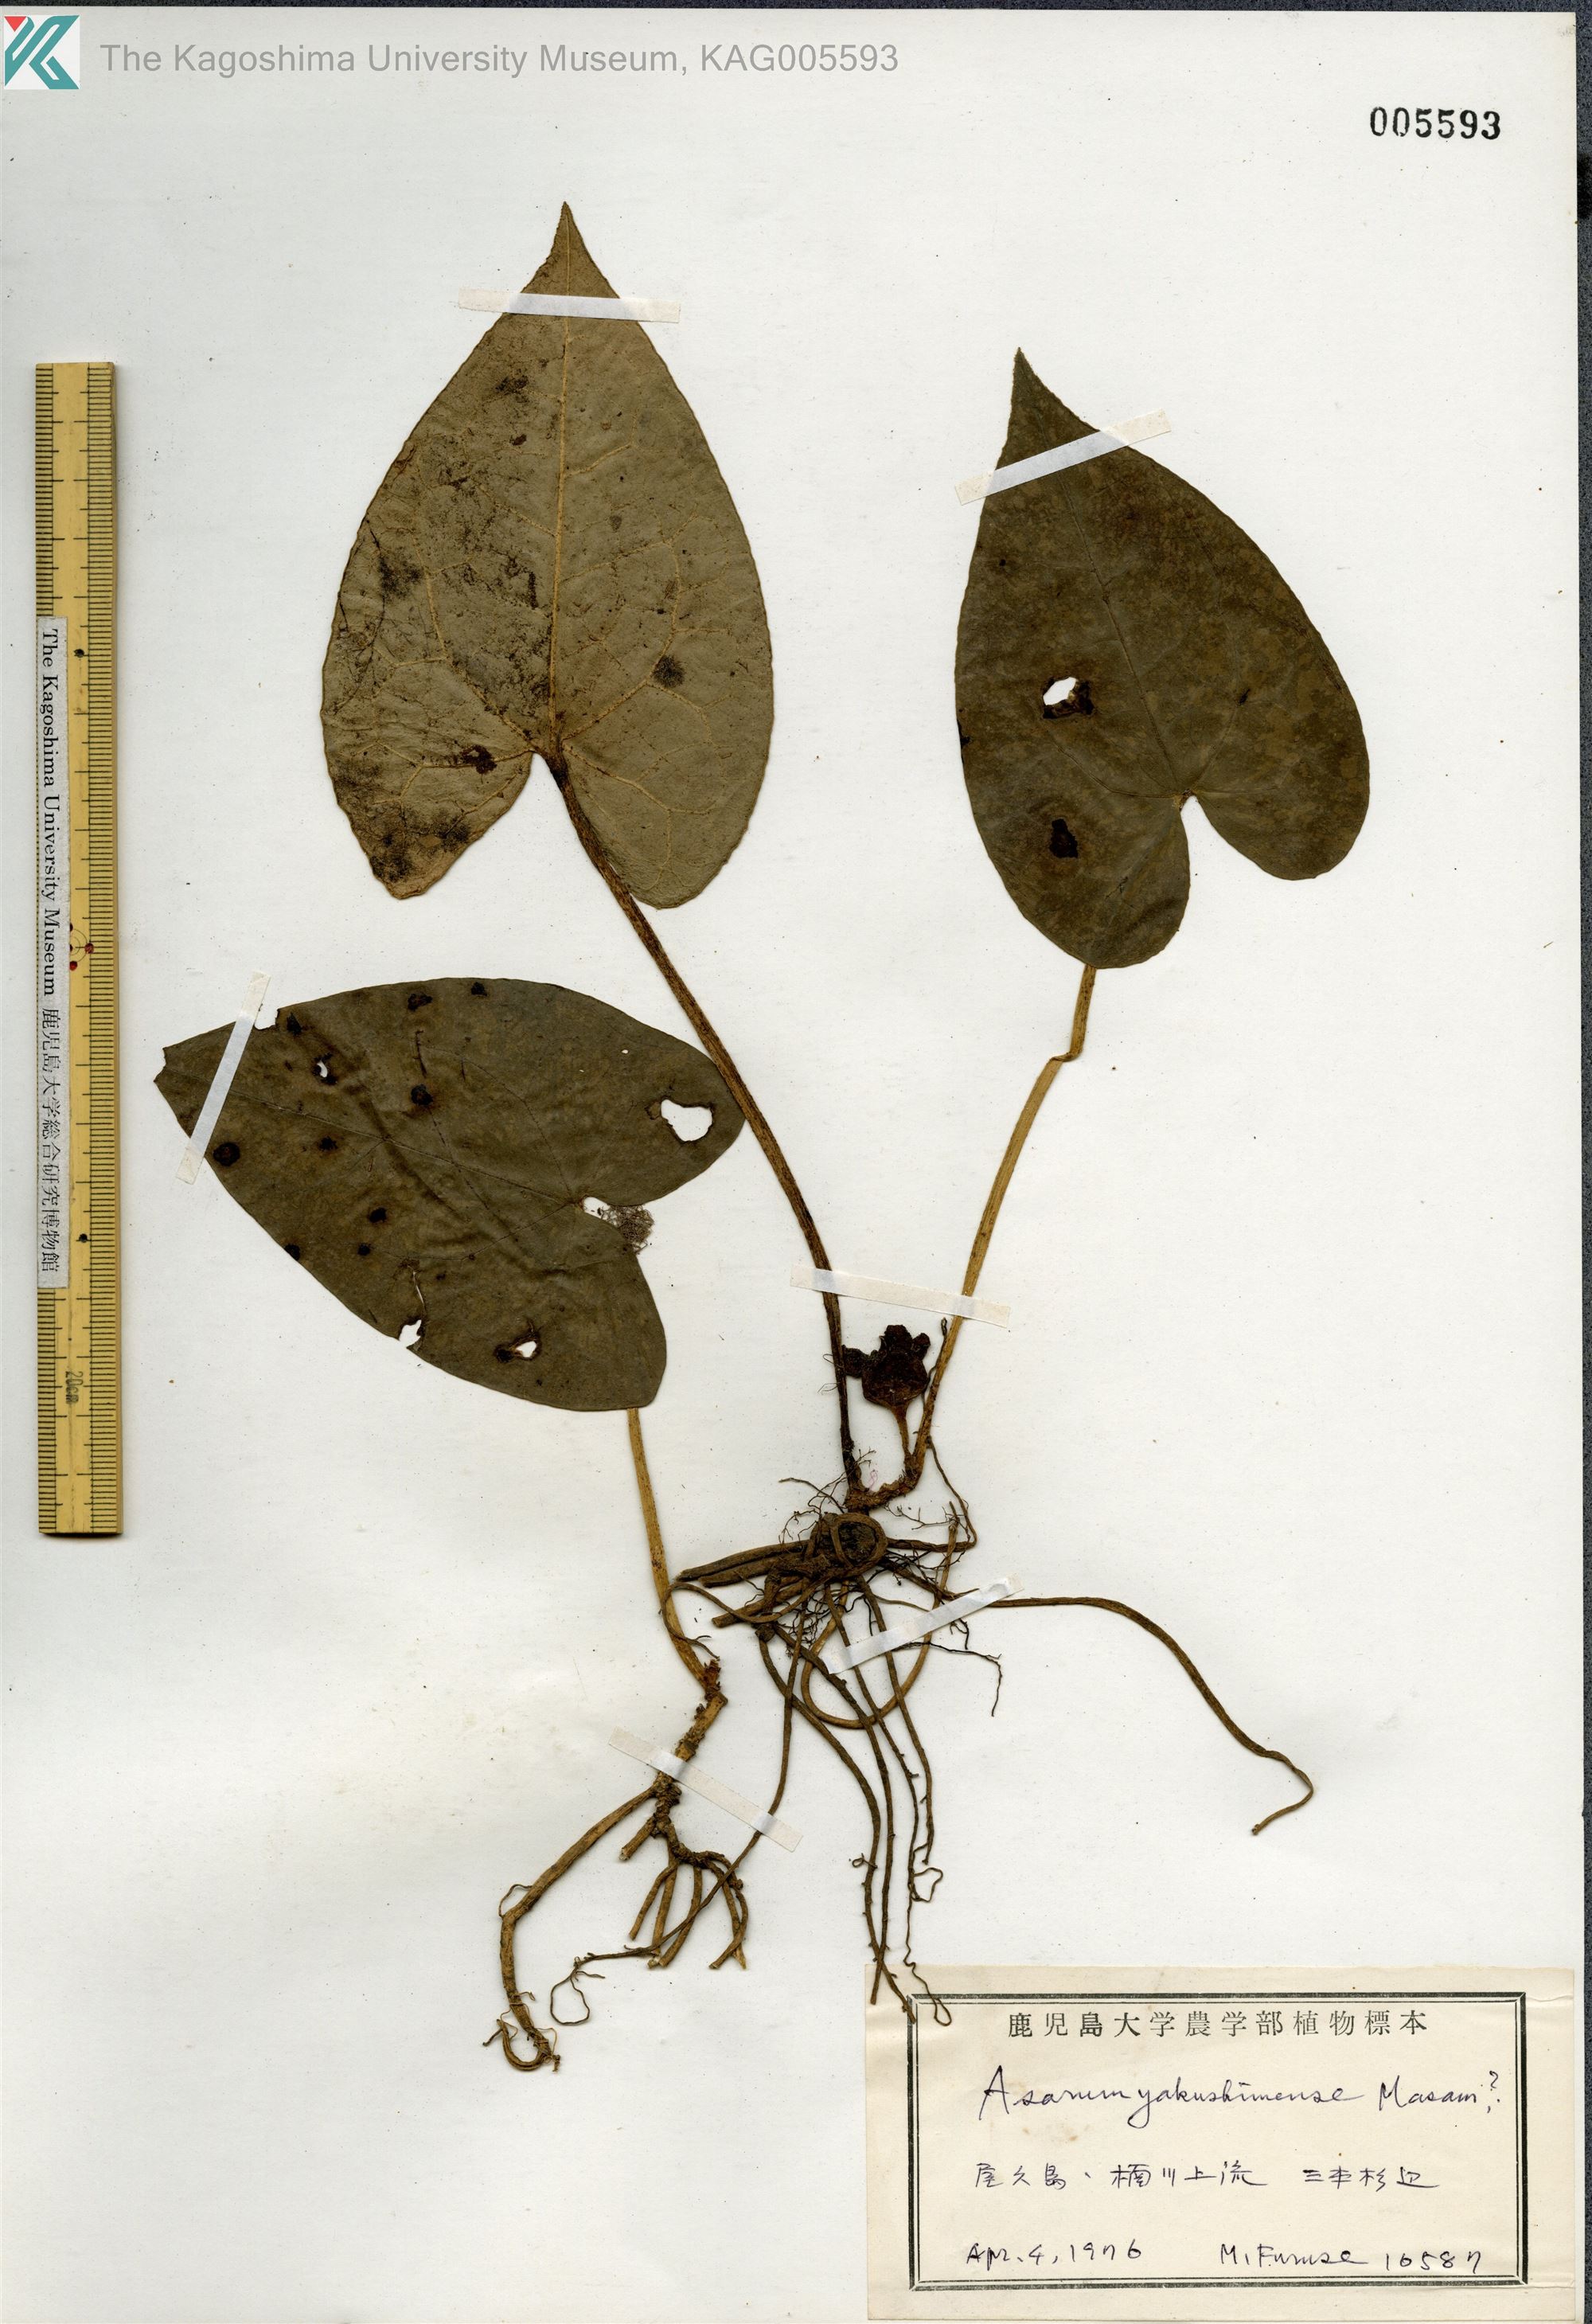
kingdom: Plantae
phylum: Tracheophyta
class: Magnoliopsida
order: Piperales
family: Aristolochiaceae
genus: Asarum
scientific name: Asarum kumageanum
